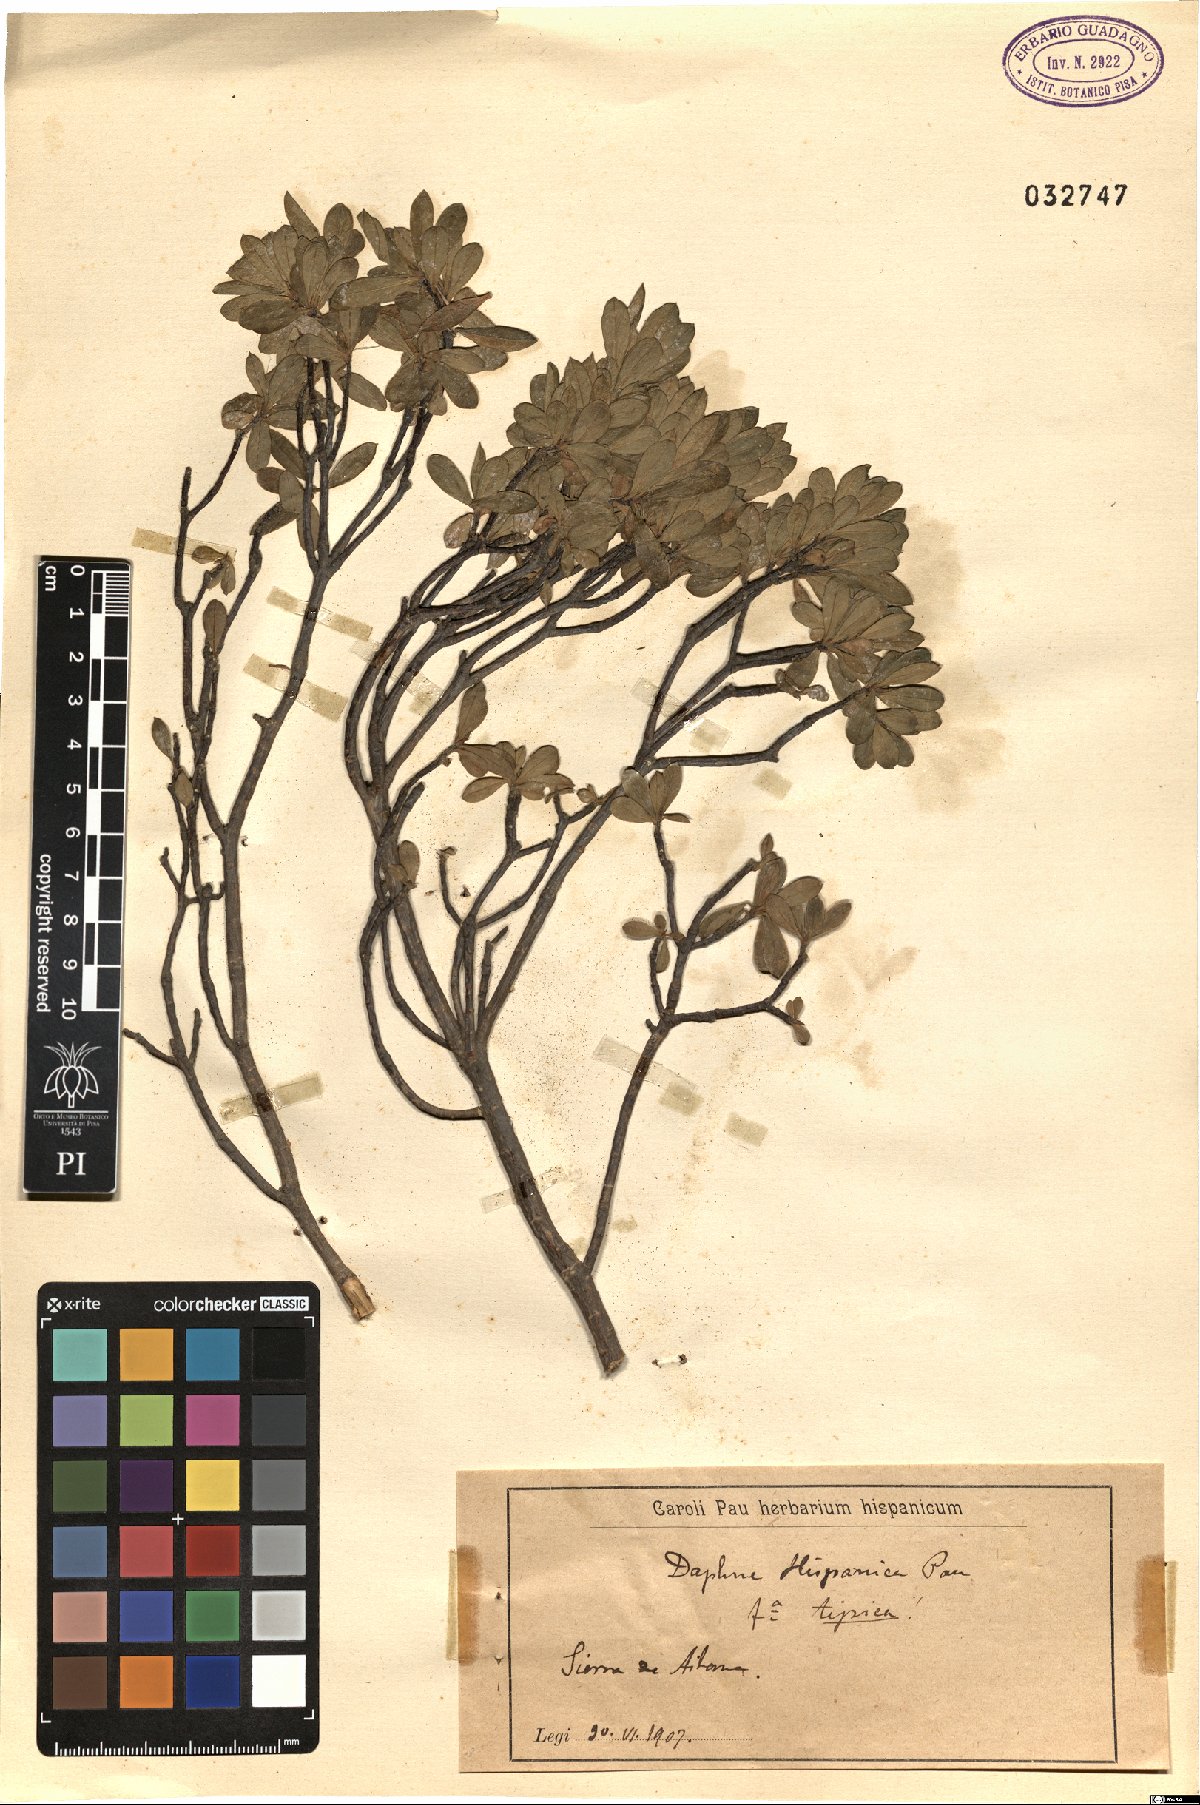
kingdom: Plantae
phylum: Tracheophyta
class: Magnoliopsida
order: Malvales
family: Thymelaeaceae
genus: Daphne
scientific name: Daphne oleoides
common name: Spurge-olive
